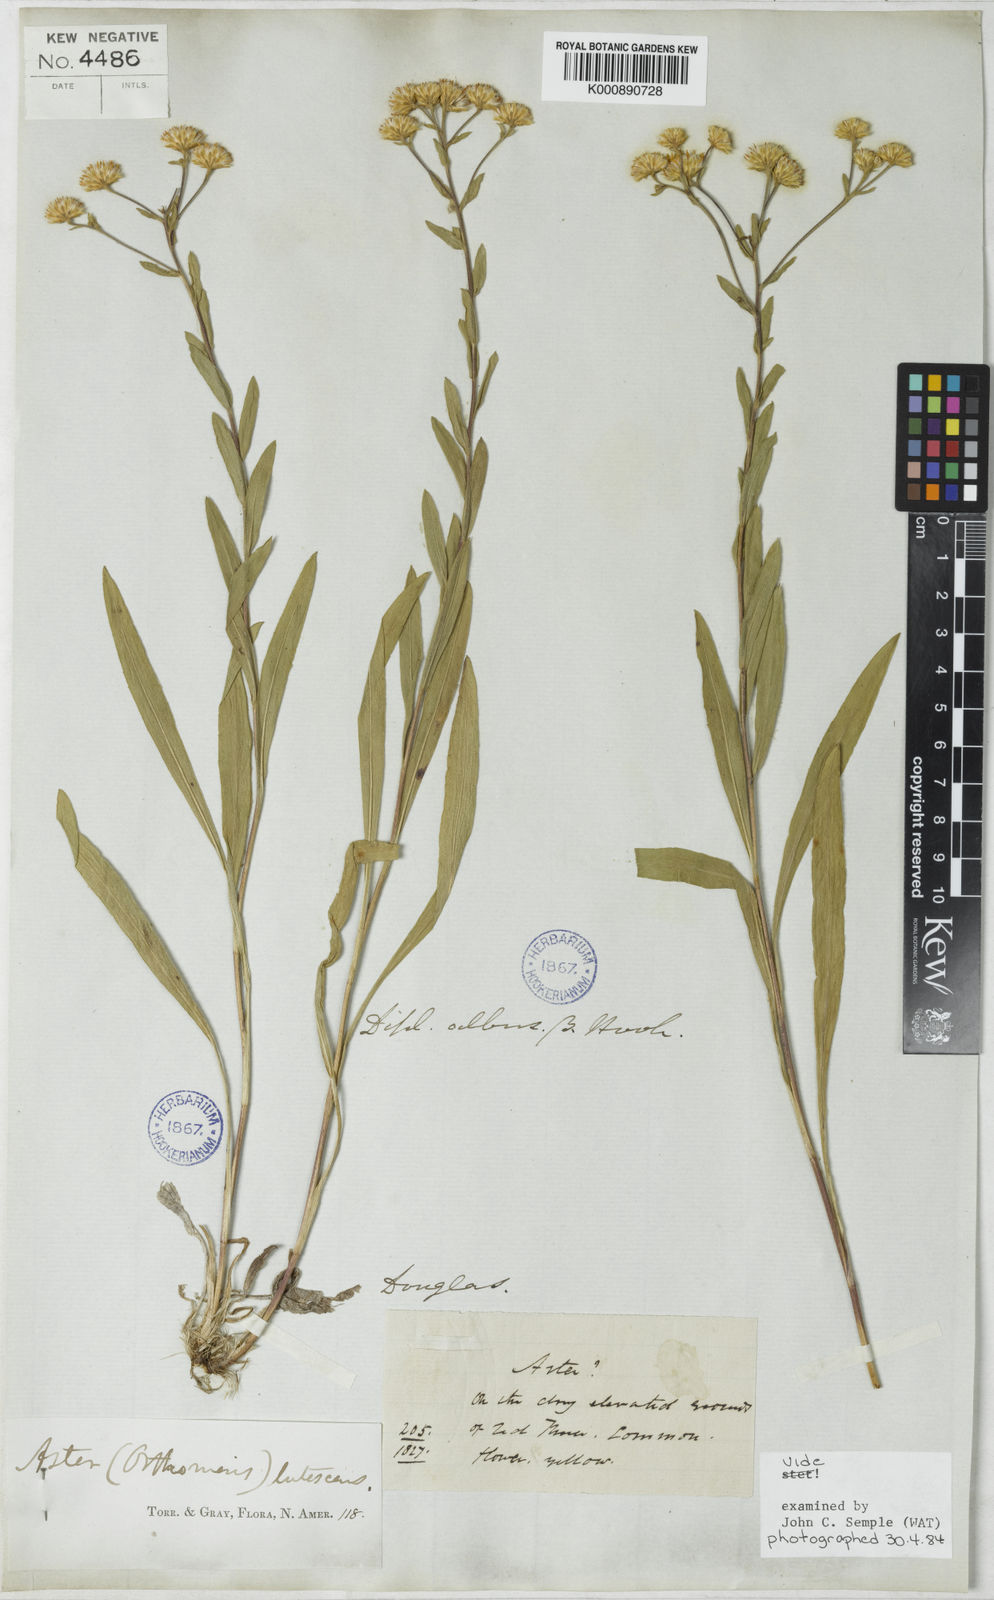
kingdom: Plantae
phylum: Tracheophyta
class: Magnoliopsida
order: Asterales
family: Asteraceae
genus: Solidago
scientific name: Solidago lutescens
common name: Yellow upland goldenrod
